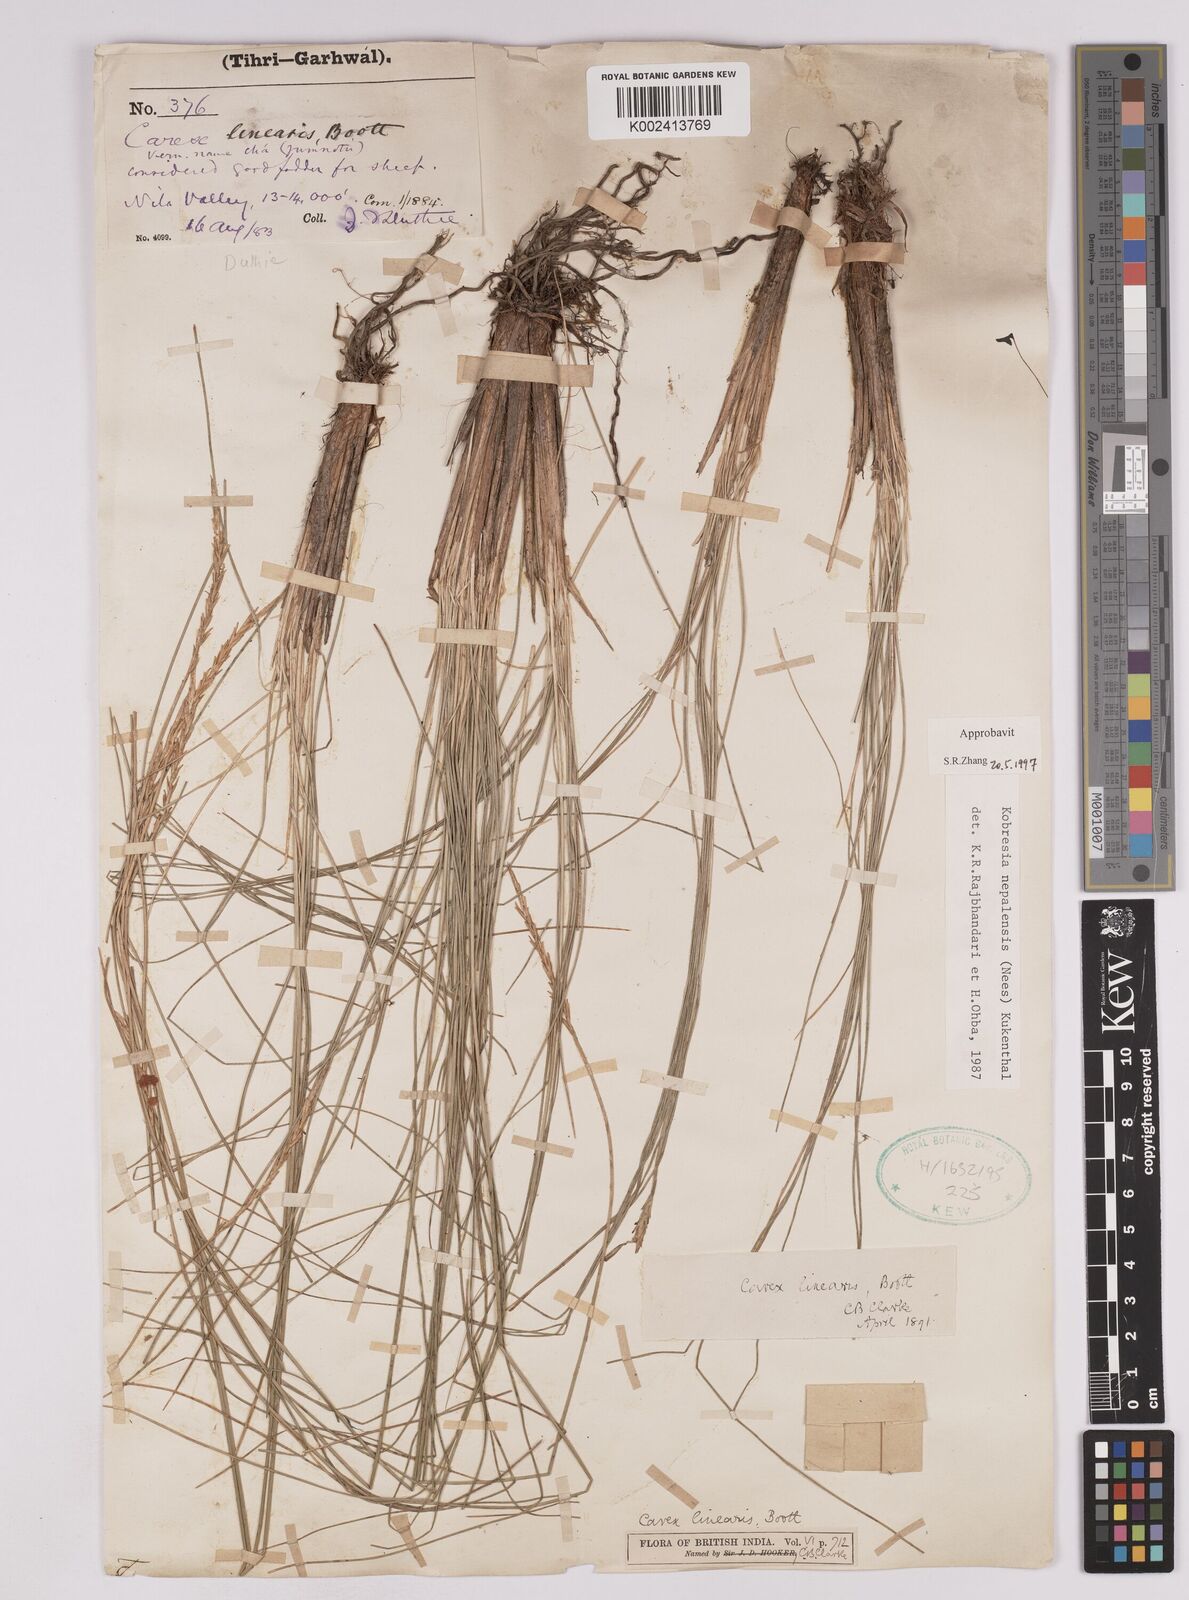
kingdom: Plantae
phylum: Tracheophyta
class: Liliopsida
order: Poales
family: Cyperaceae
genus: Carex
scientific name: Carex esenbeckii
